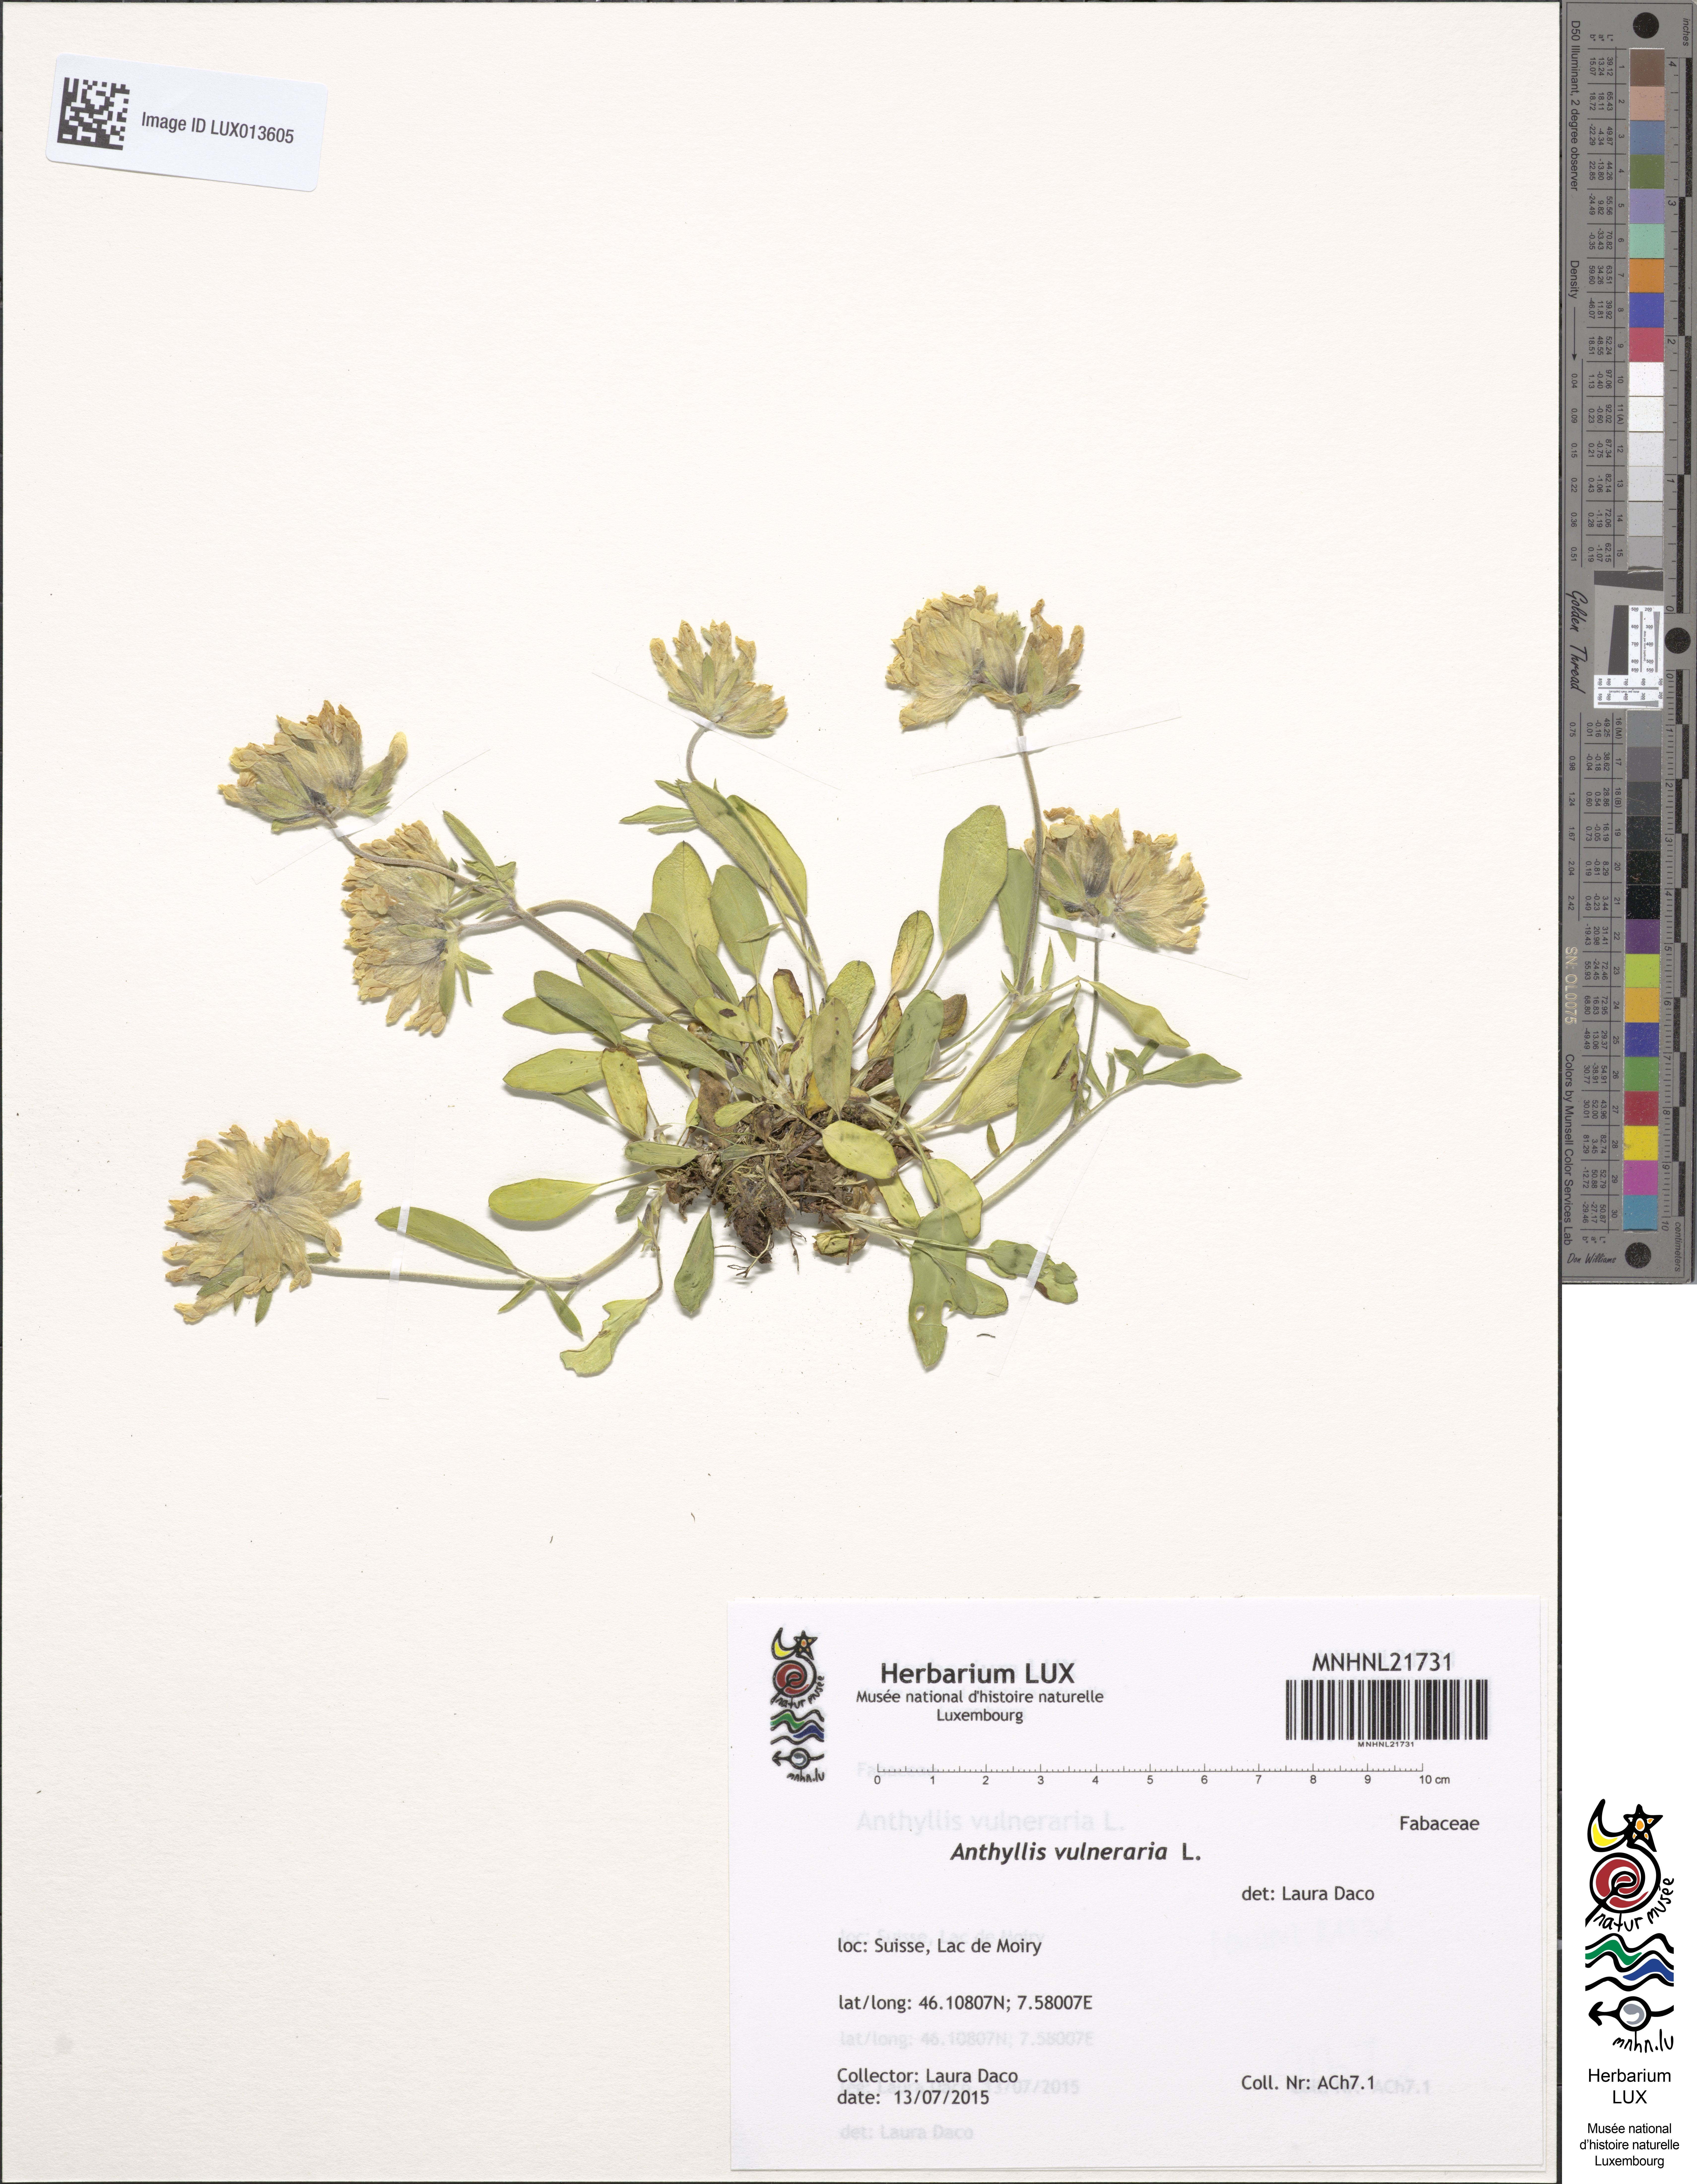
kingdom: Plantae
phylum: Tracheophyta
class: Magnoliopsida
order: Fabales
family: Fabaceae
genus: Anthyllis
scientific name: Anthyllis vulneraria
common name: Kidney vetch
